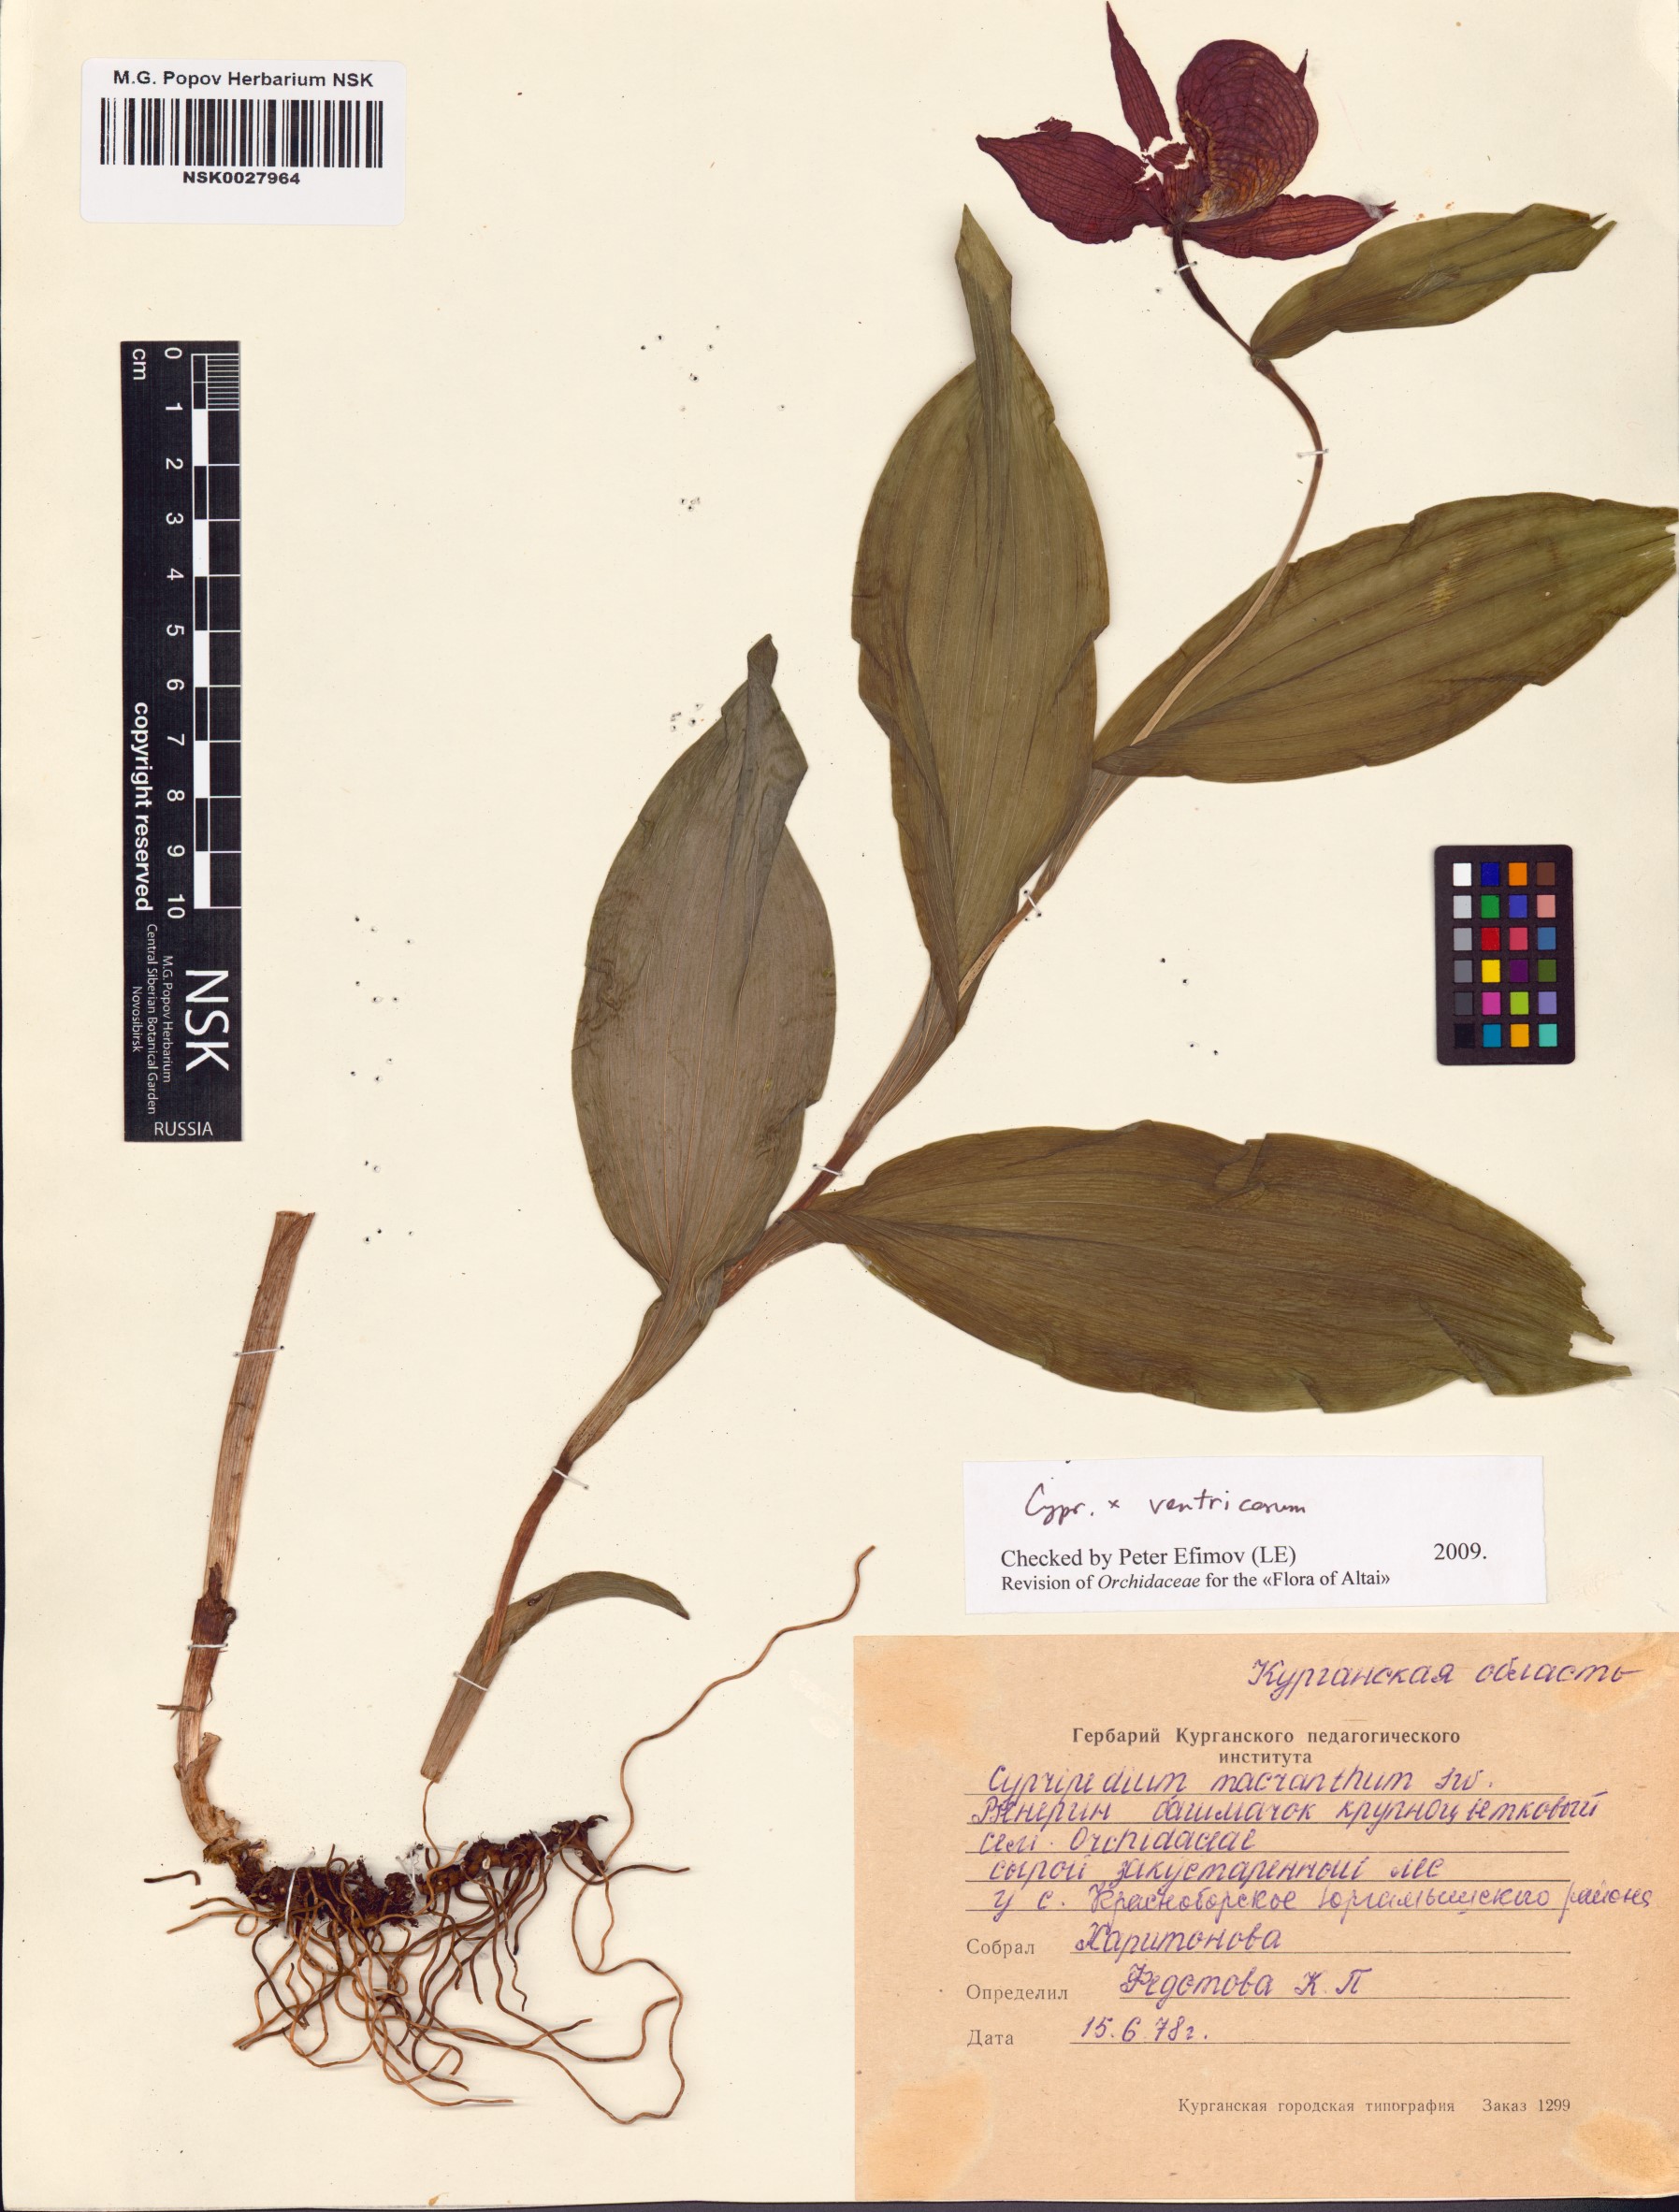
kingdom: Plantae
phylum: Tracheophyta
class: Liliopsida
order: Asparagales
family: Orchidaceae
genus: Cypripedium
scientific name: Cypripedium ventricosum
